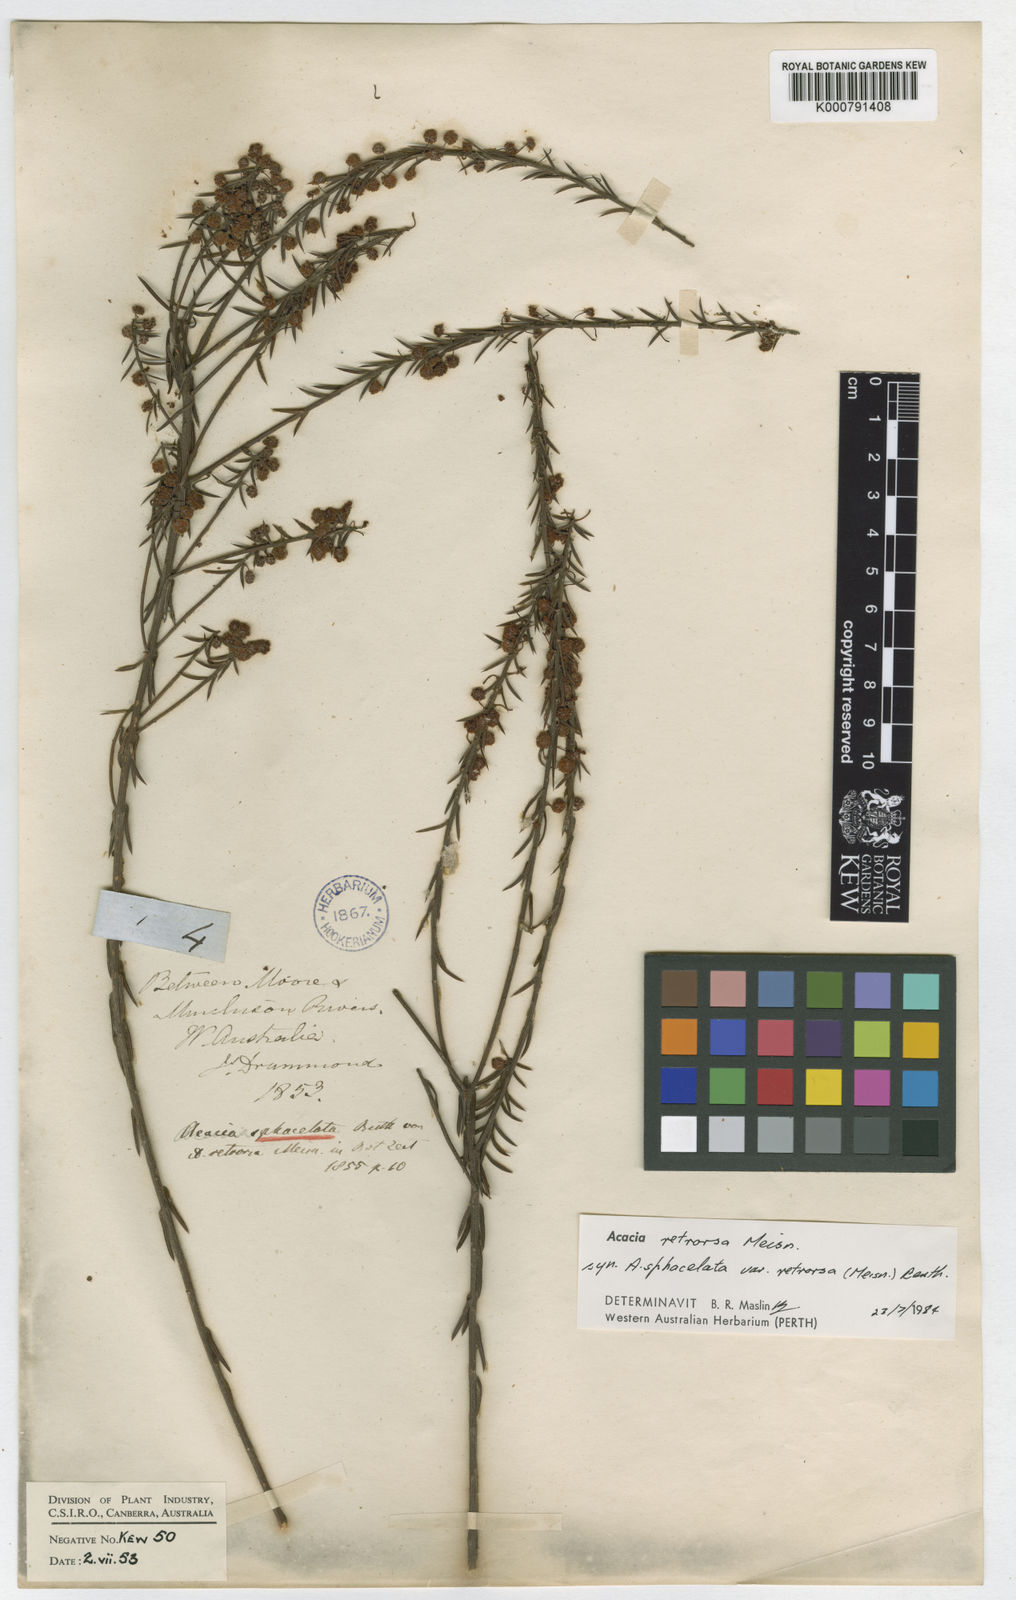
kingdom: Plantae
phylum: Tracheophyta
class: Magnoliopsida
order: Fabales
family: Fabaceae
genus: Acacia
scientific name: Acacia sphacelata
